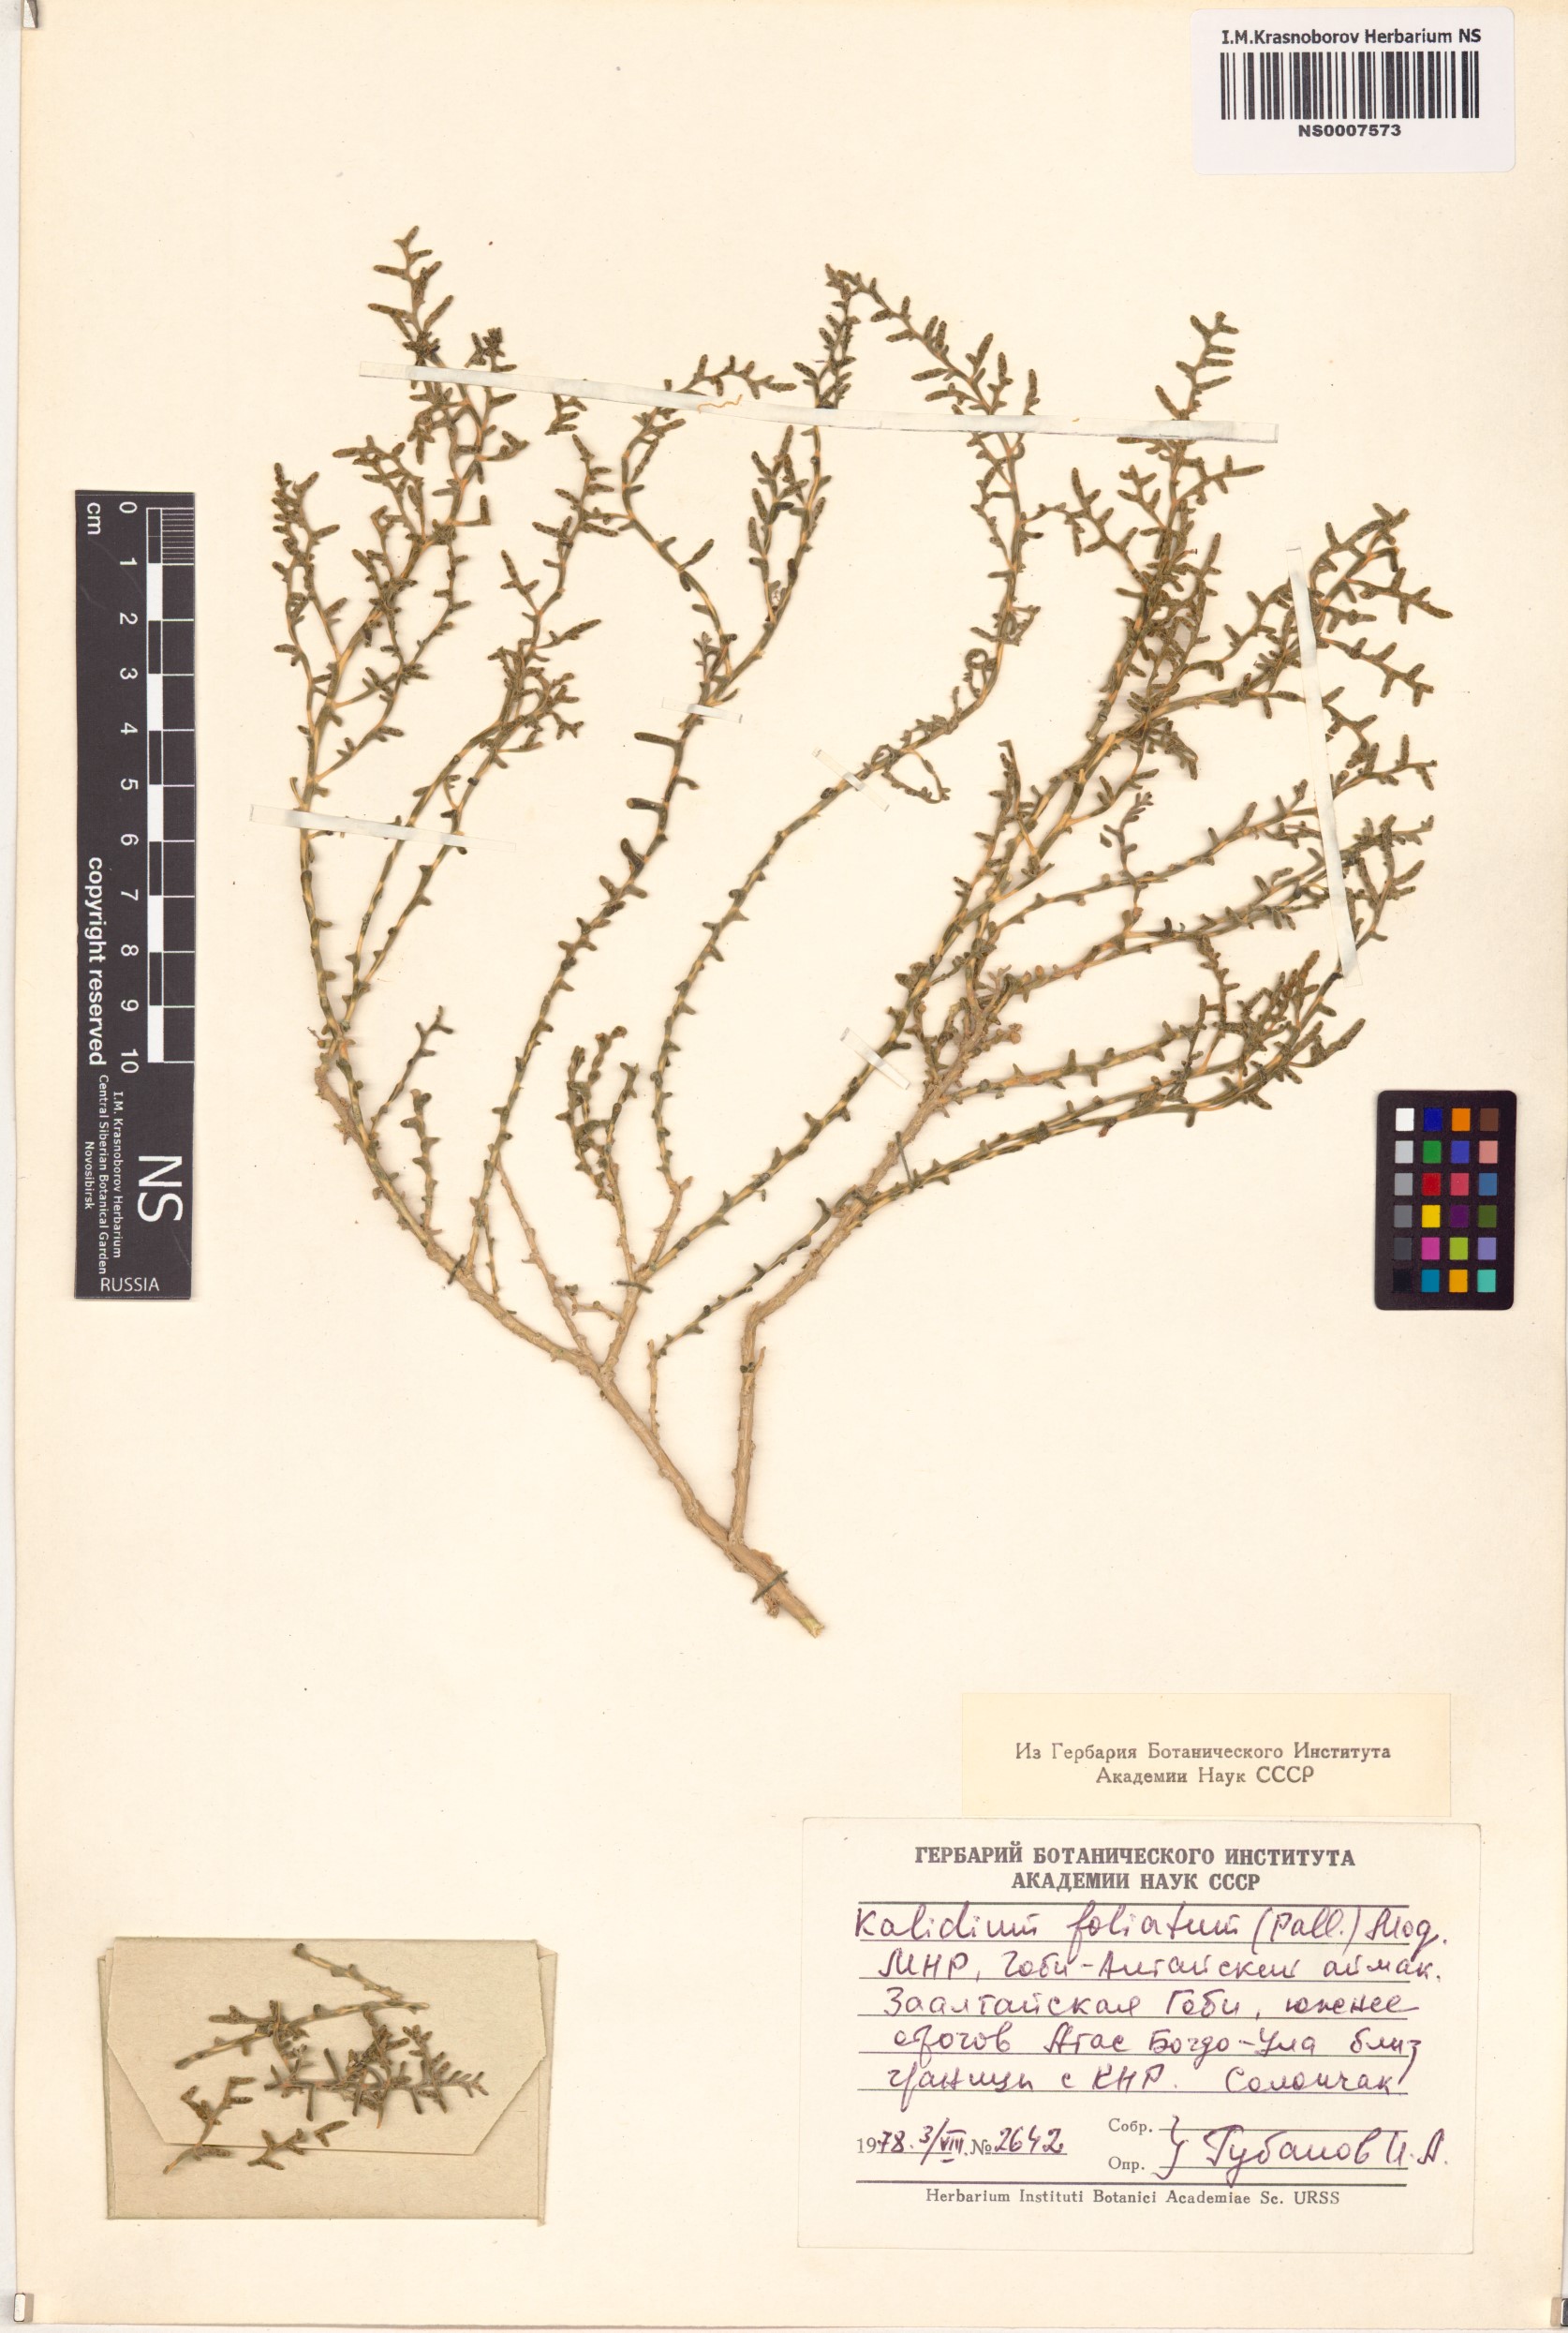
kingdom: Plantae
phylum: Tracheophyta
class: Magnoliopsida
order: Caryophyllales
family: Amaranthaceae
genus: Kalidium
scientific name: Kalidium foliatum
